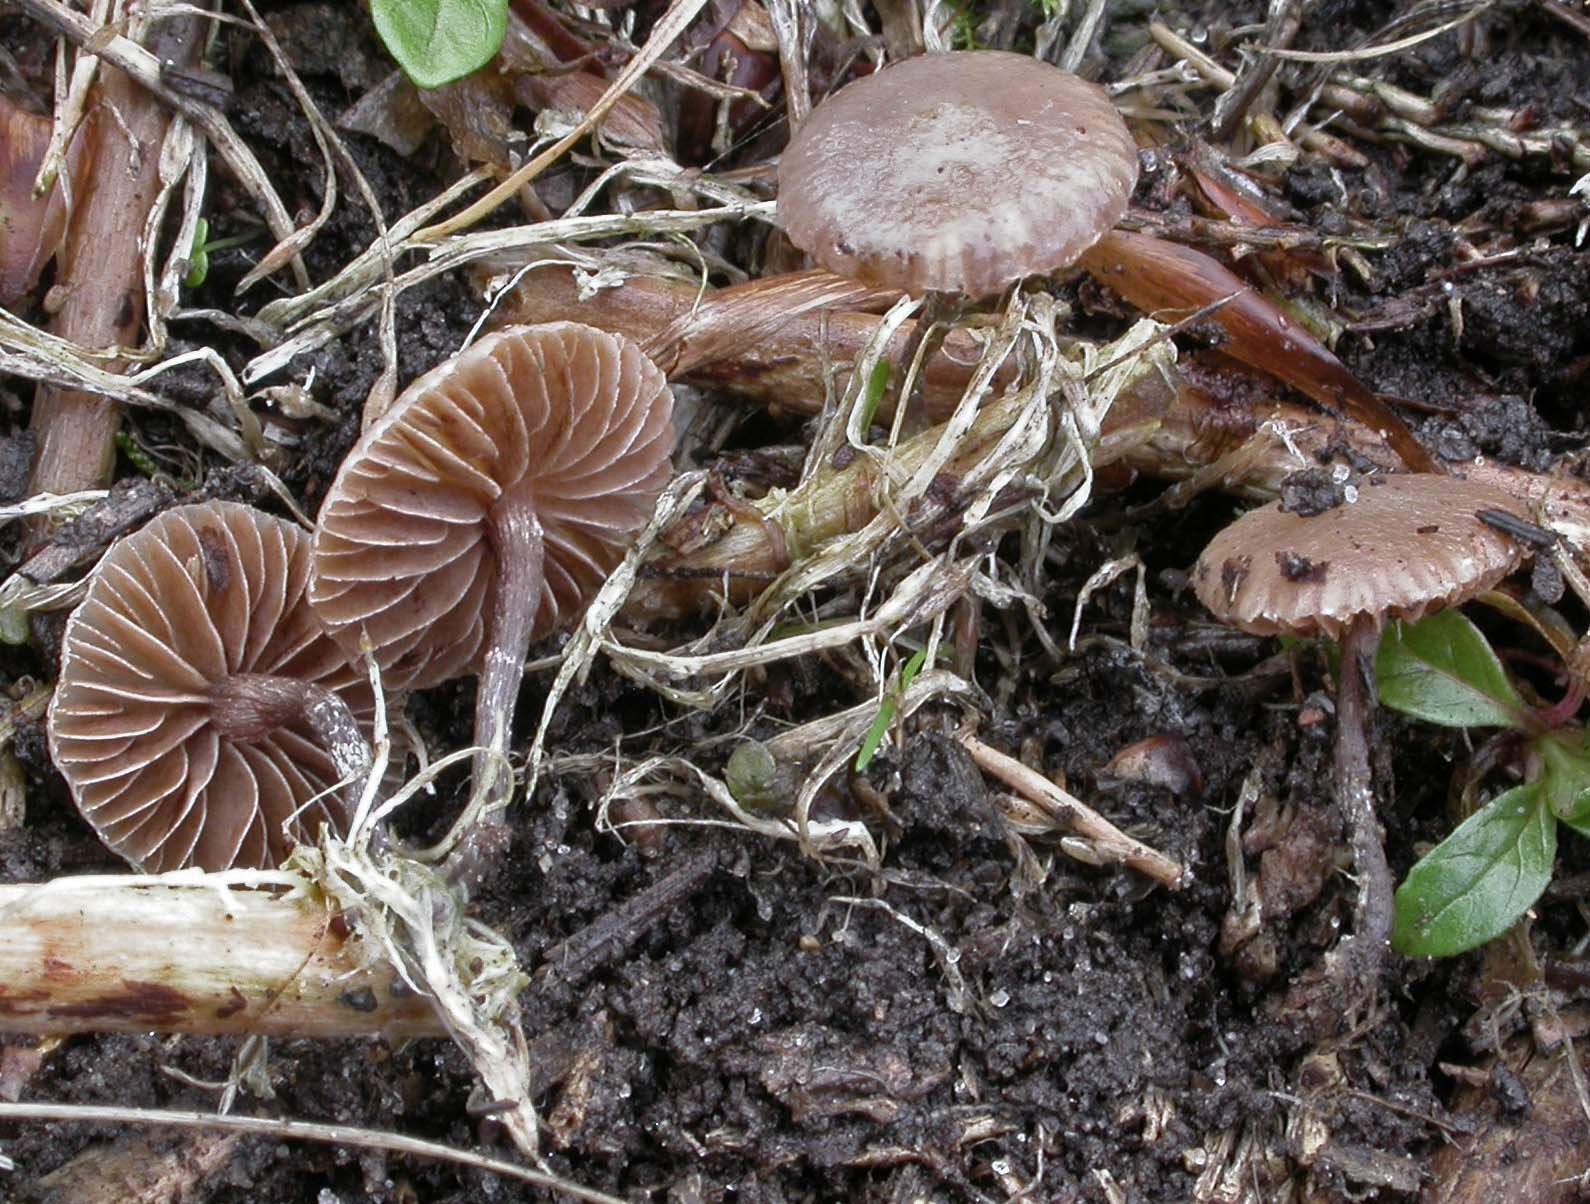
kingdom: Fungi
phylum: Basidiomycota
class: Agaricomycetes
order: Agaricales
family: Strophariaceae
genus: Deconica
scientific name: Deconica inquilina
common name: græs-stråhat
